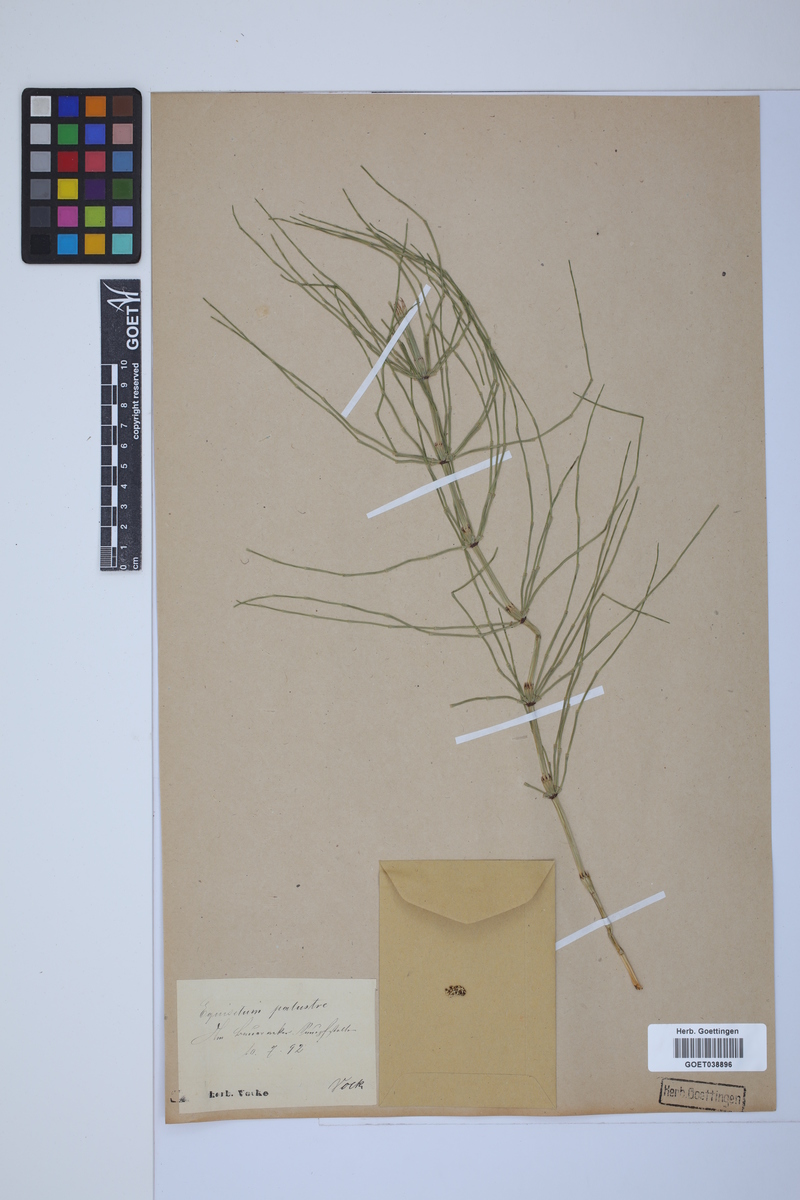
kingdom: Plantae
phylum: Tracheophyta
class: Polypodiopsida
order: Equisetales
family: Equisetaceae
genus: Equisetum
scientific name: Equisetum palustre
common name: Marsh horsetail
